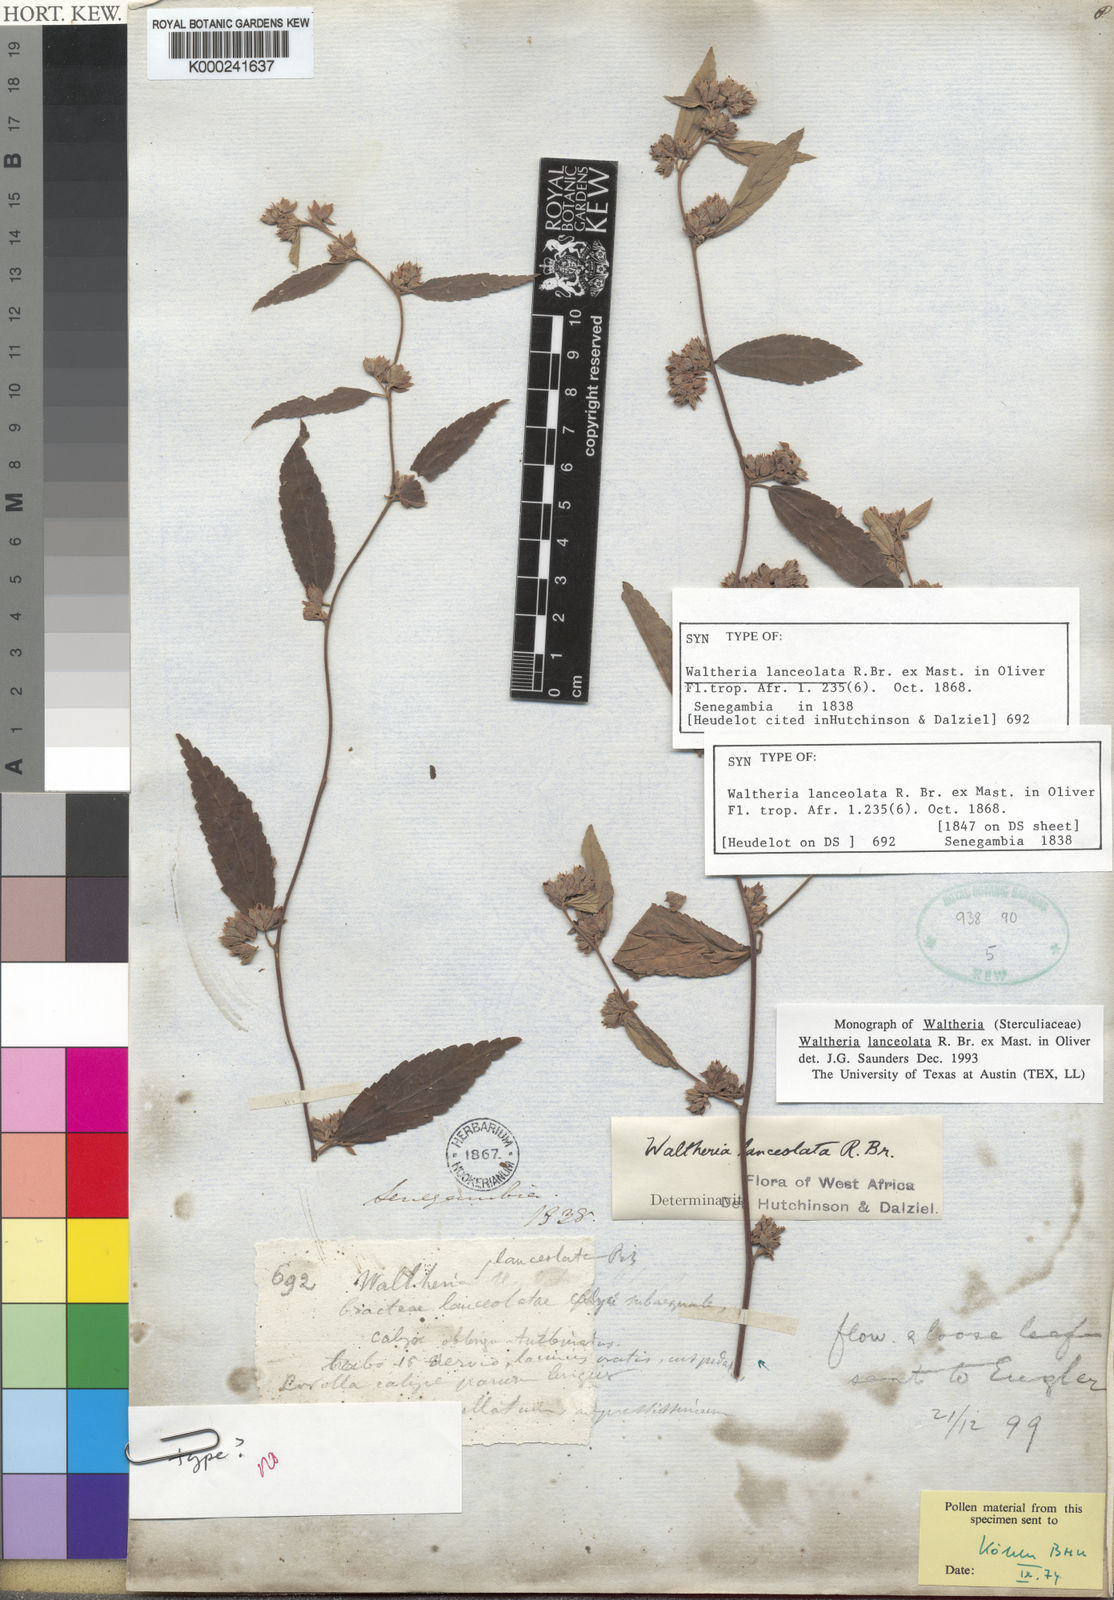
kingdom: Plantae
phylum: Tracheophyta
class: Magnoliopsida
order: Malvales
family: Malvaceae
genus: Waltheria
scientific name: Waltheria lanceolata
